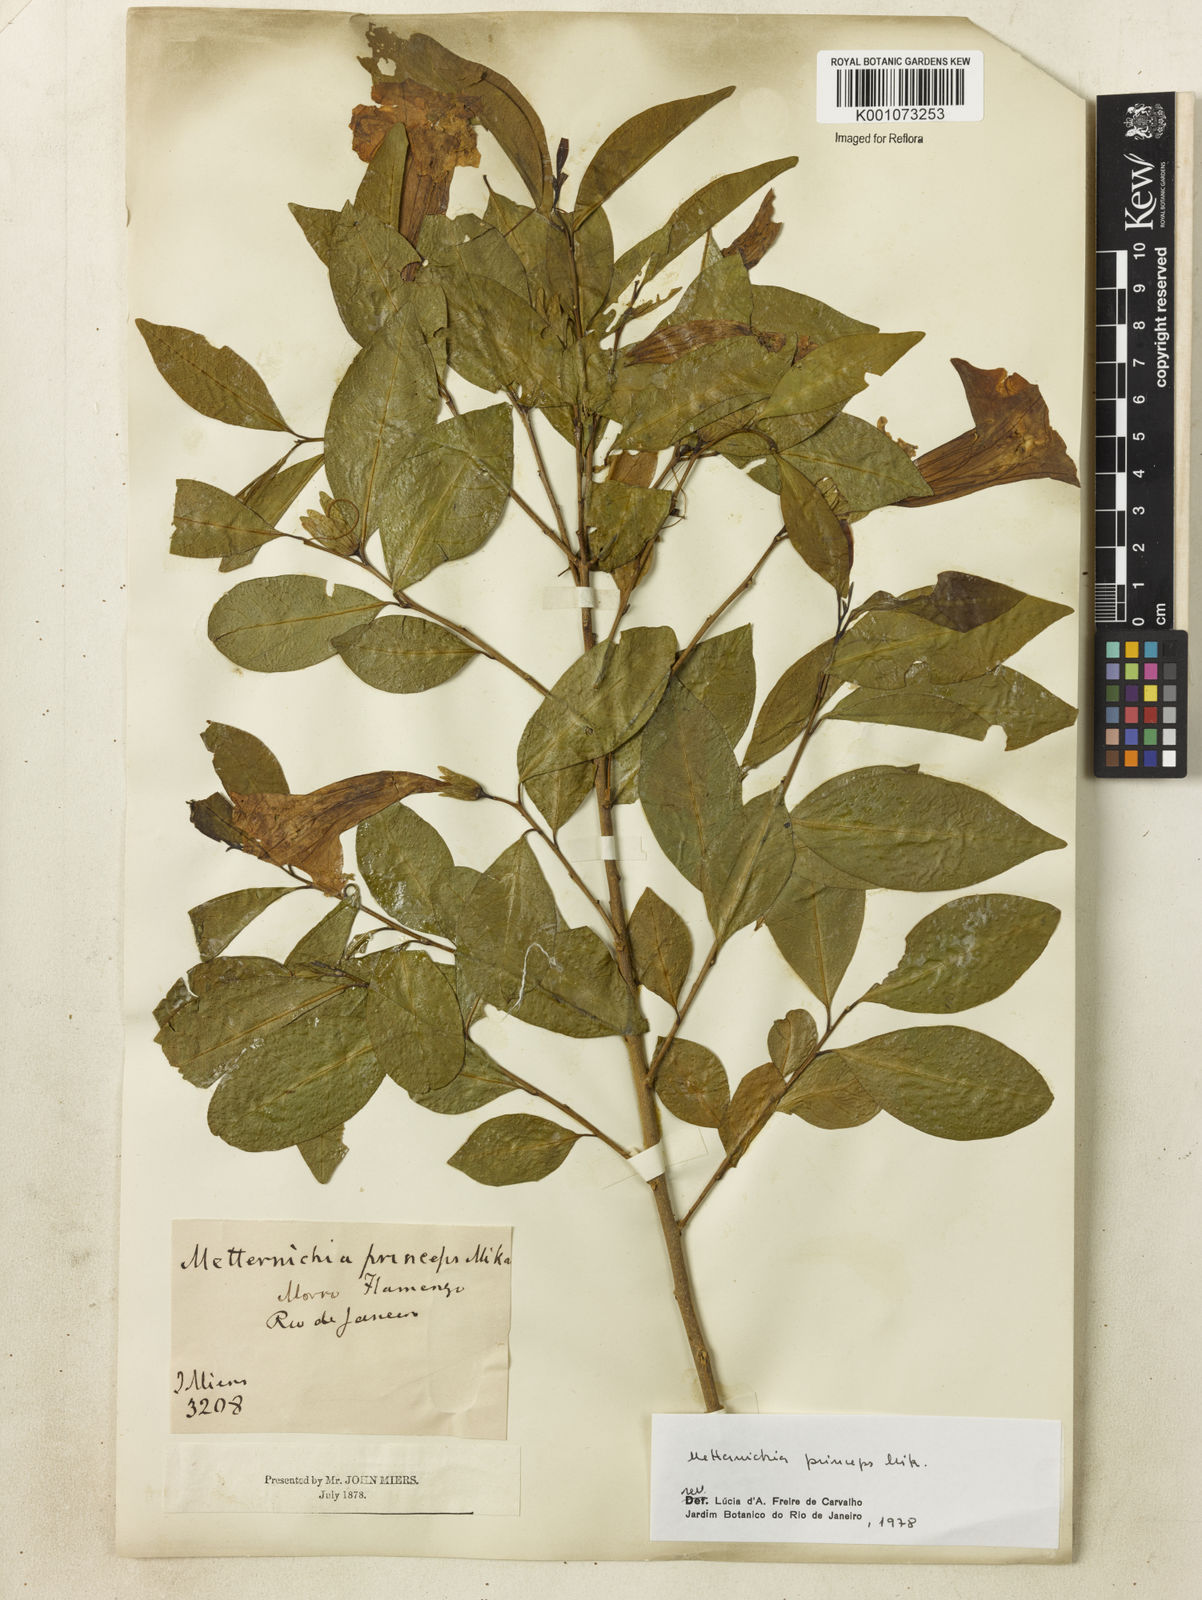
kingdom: Plantae
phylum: Tracheophyta
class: Magnoliopsida
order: Solanales
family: Solanaceae
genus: Metternichia
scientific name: Metternichia
